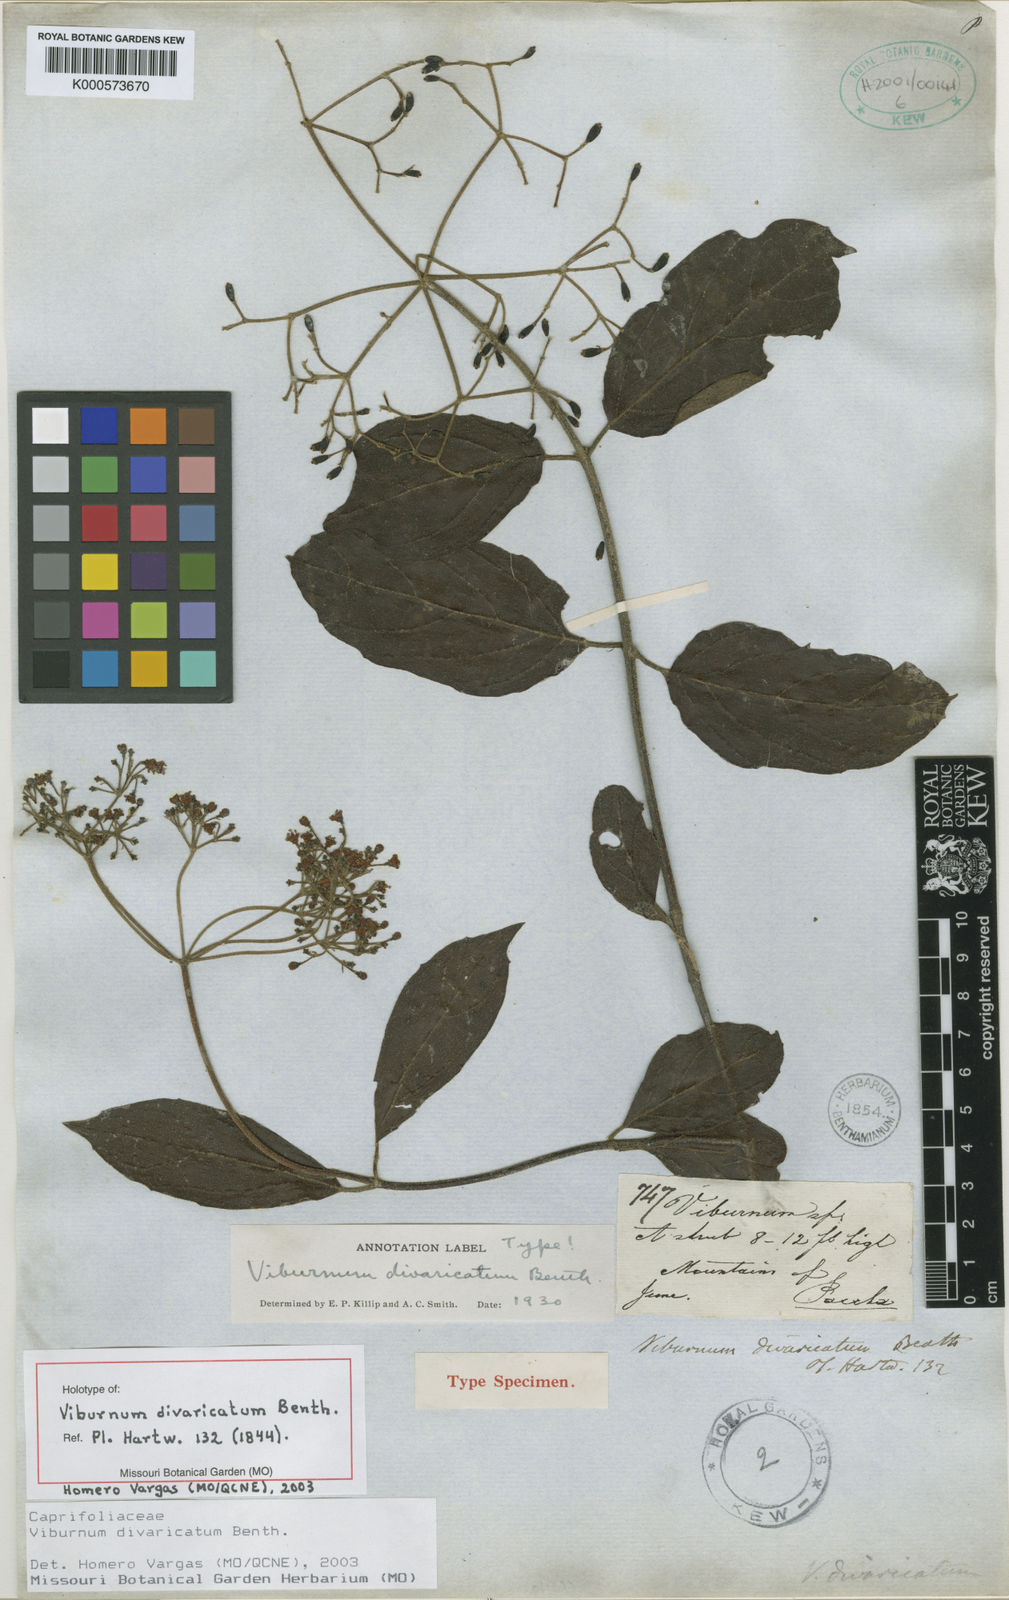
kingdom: Plantae
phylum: Tracheophyta
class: Magnoliopsida
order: Dipsacales
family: Viburnaceae
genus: Viburnum
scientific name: Viburnum divaricatum
